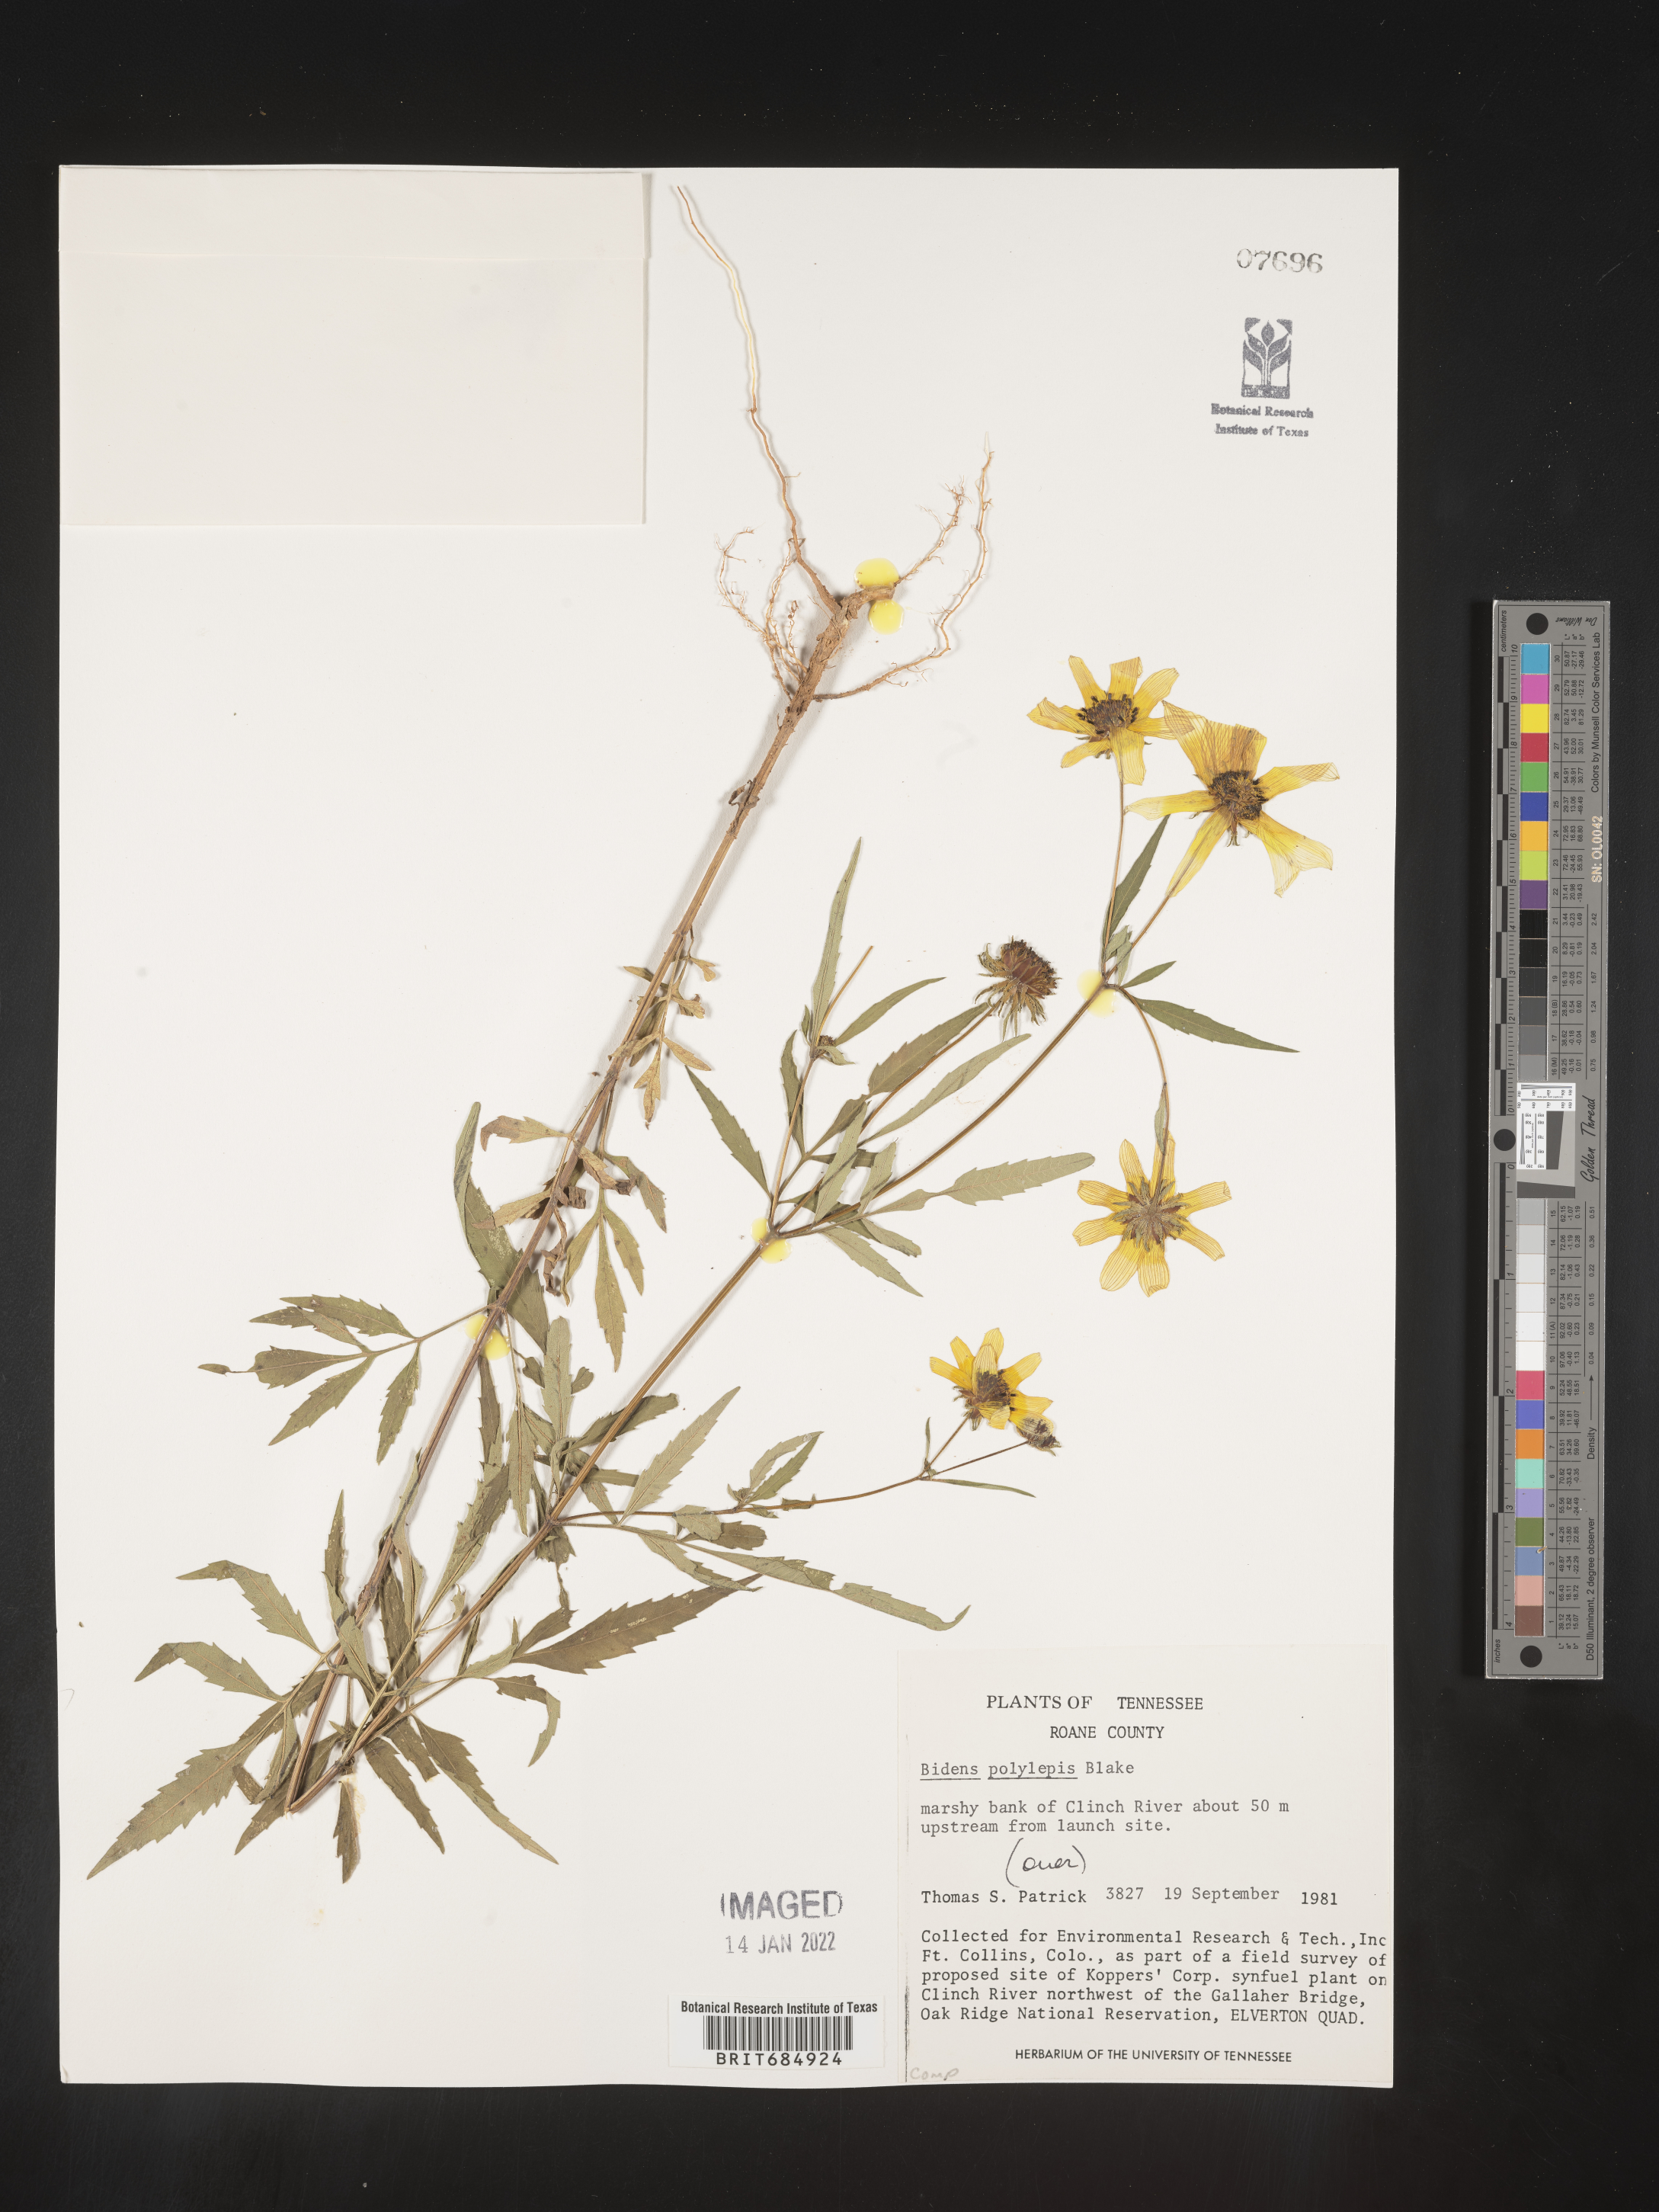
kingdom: Plantae
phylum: Tracheophyta
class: Magnoliopsida
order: Asterales
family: Asteraceae
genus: Bidens
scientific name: Bidens polylepis
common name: Awnless beggarticks
